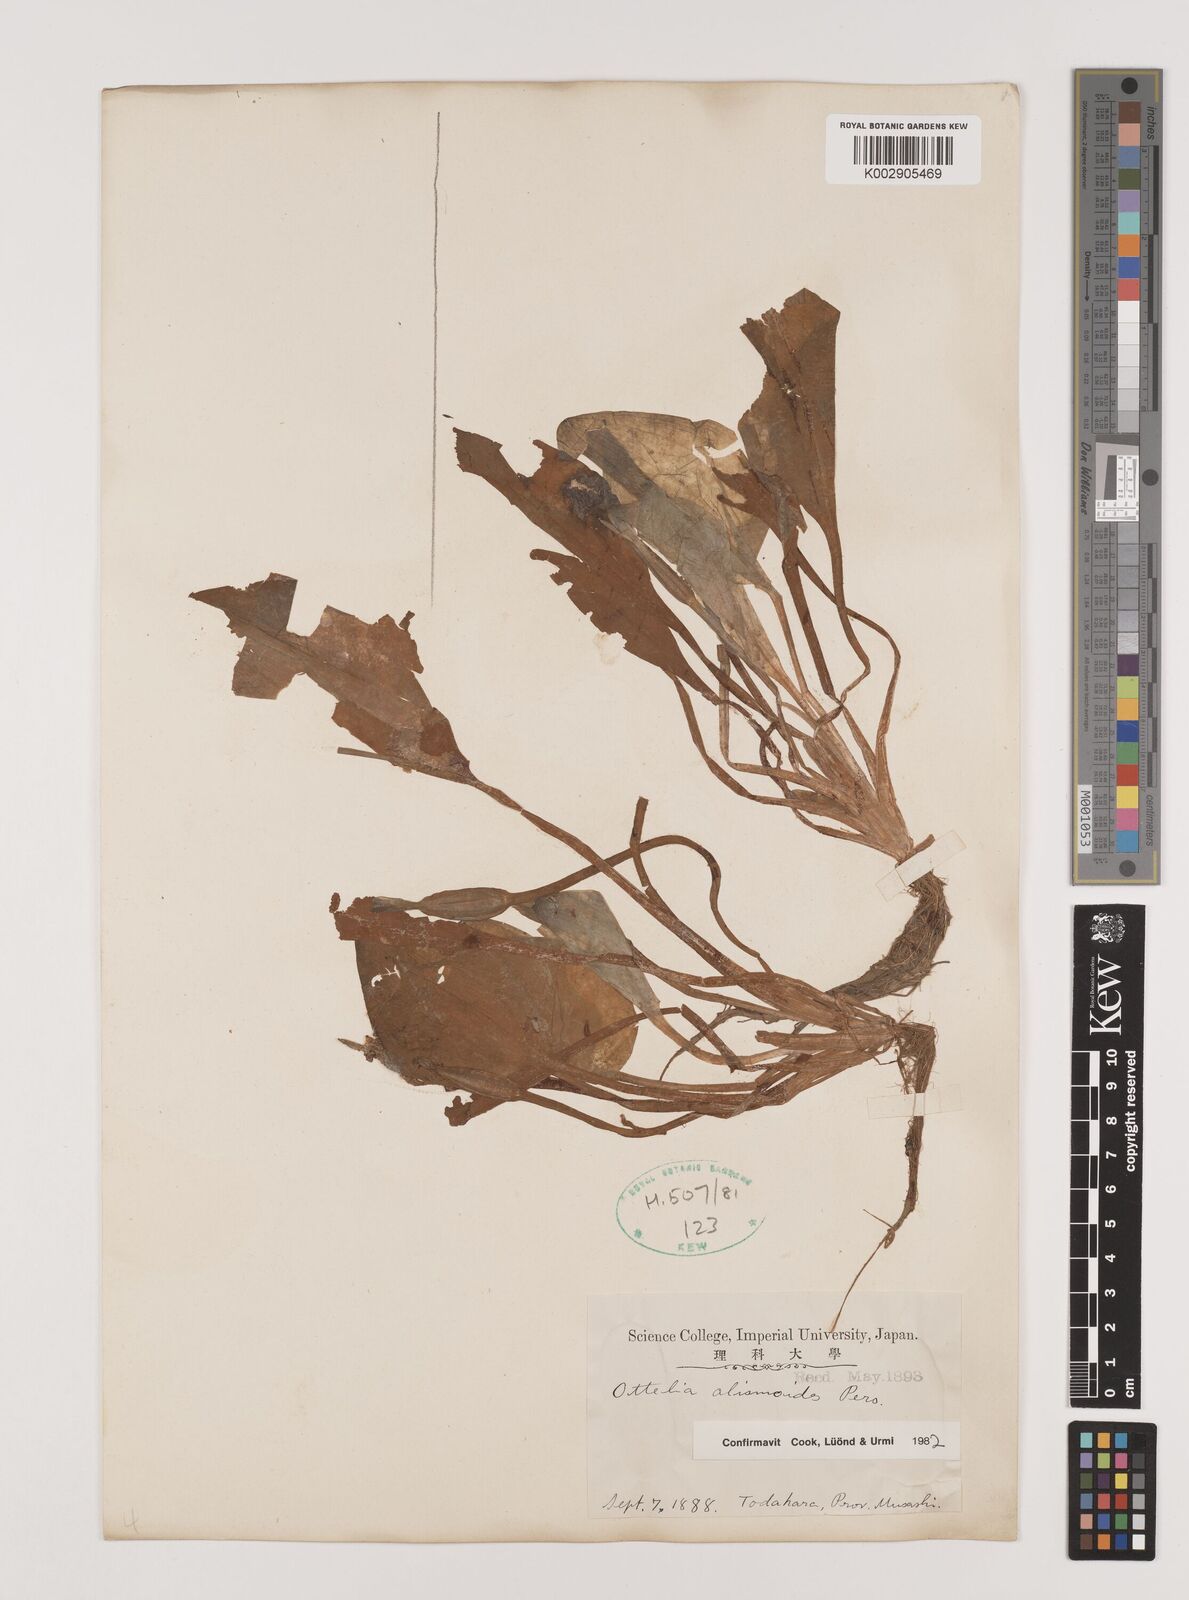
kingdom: Plantae
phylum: Tracheophyta
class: Liliopsida
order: Alismatales
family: Hydrocharitaceae
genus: Ottelia
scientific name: Ottelia alismoides
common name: Duck-lettuce
